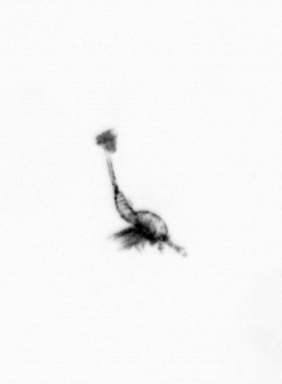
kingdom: Animalia
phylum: Arthropoda
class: Copepoda
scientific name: Copepoda
